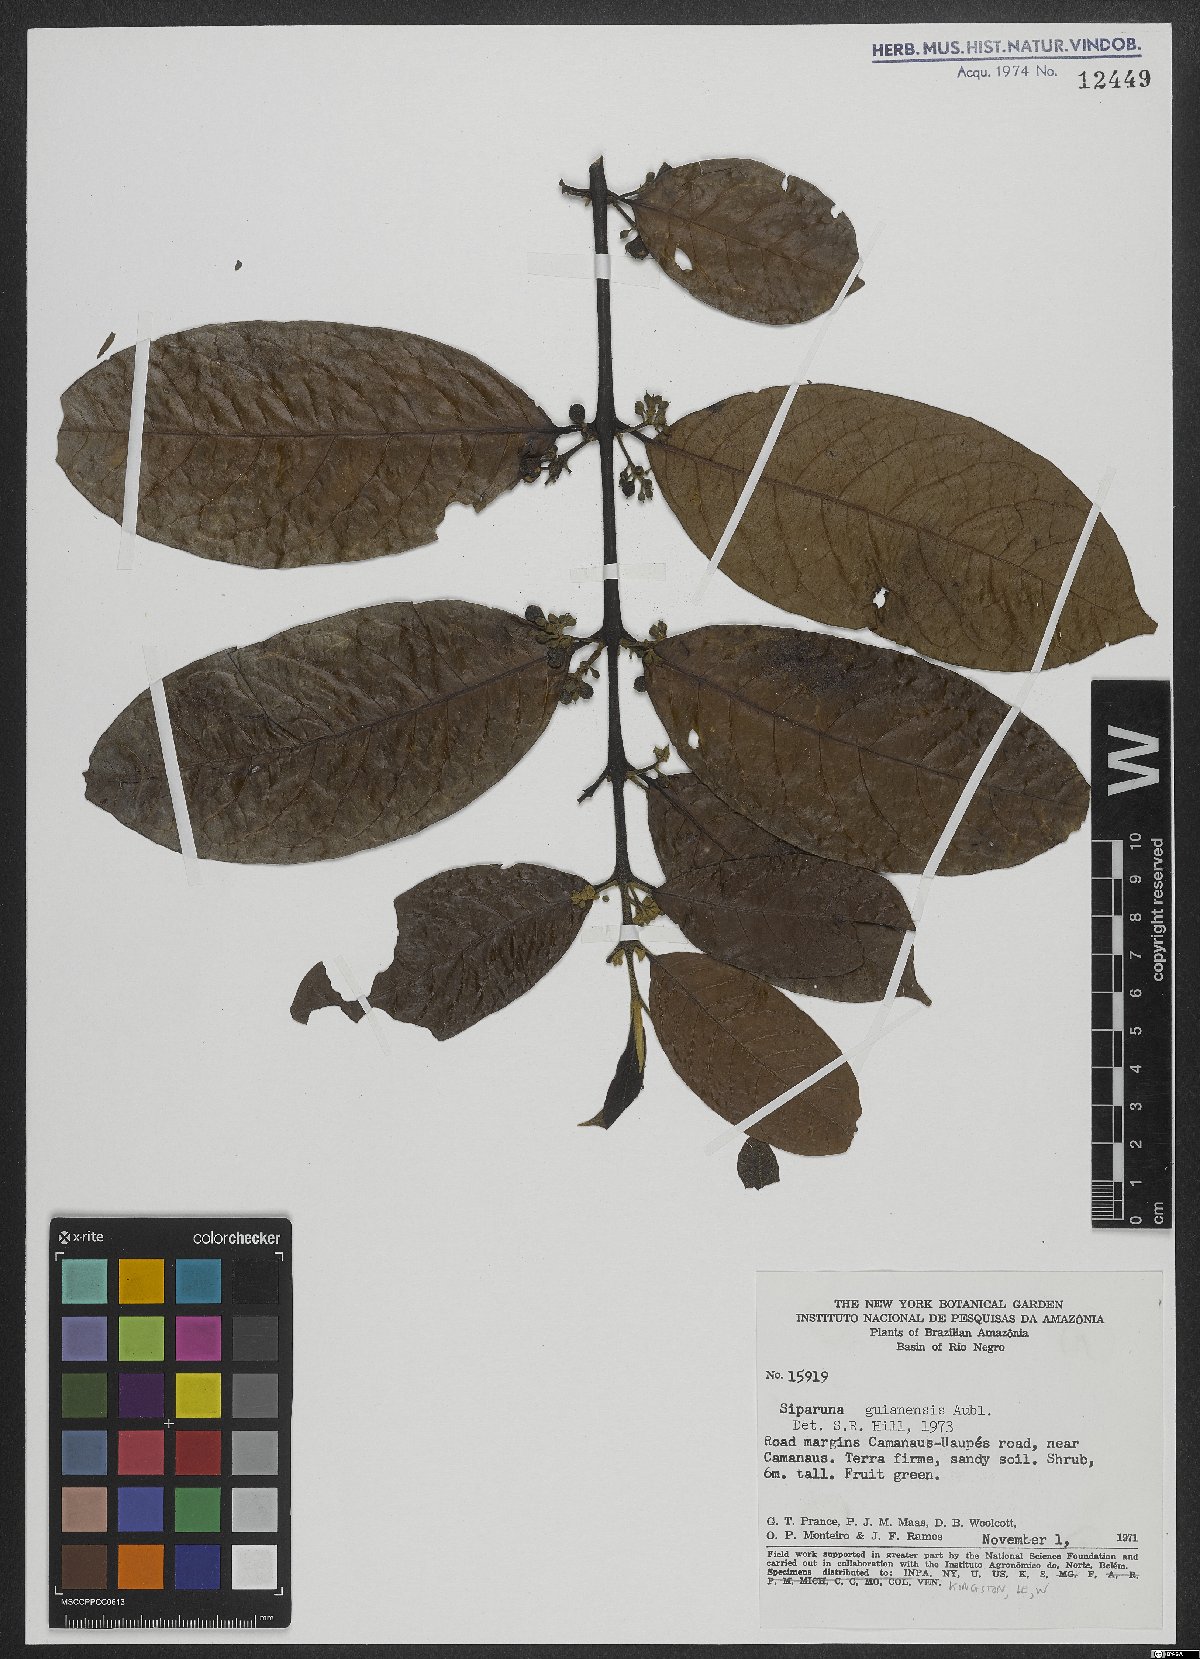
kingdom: Plantae
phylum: Tracheophyta
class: Magnoliopsida
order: Laurales
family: Siparunaceae
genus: Siparuna
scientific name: Siparuna guianensis
